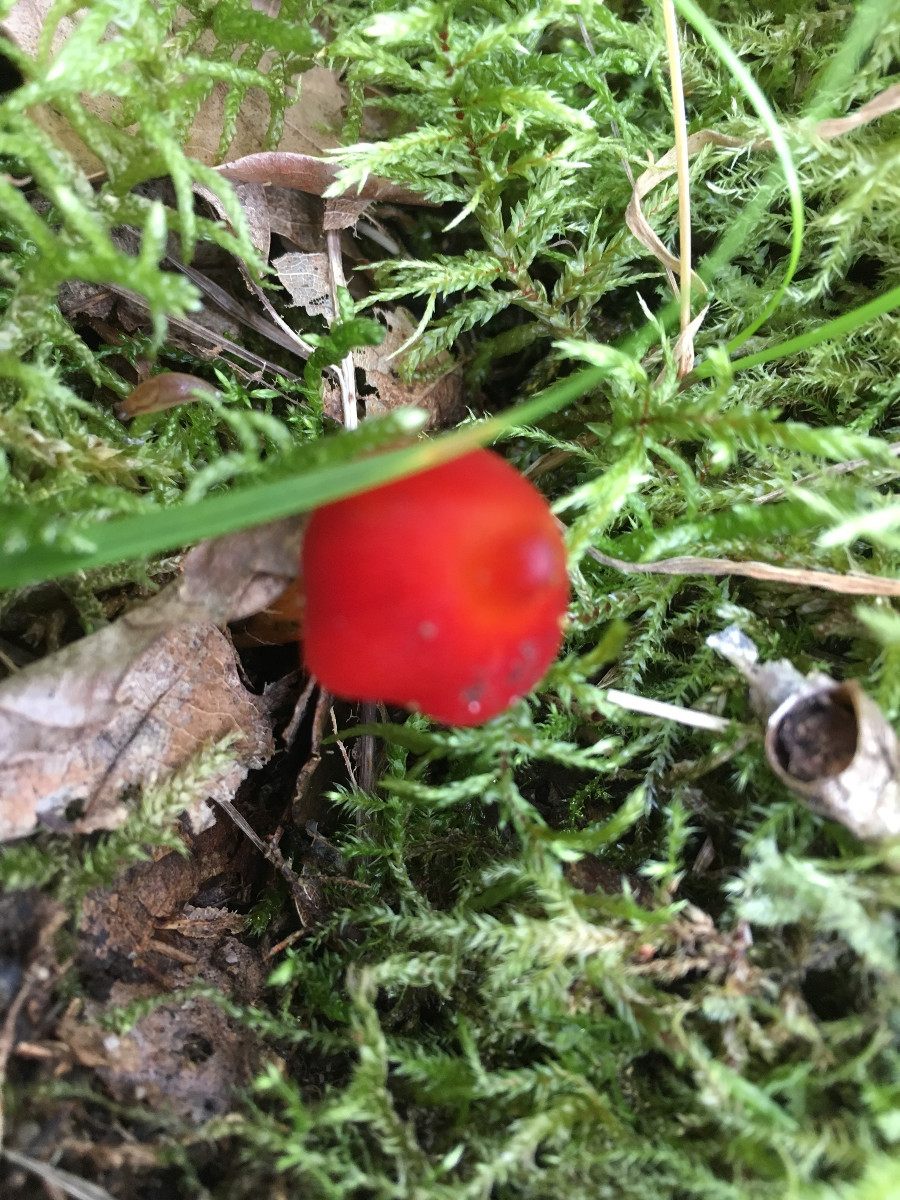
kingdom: Fungi
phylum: Basidiomycota
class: Agaricomycetes
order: Agaricales
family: Hygrophoraceae
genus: Hygrocybe
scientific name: Hygrocybe conica
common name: kegle-vokshat
